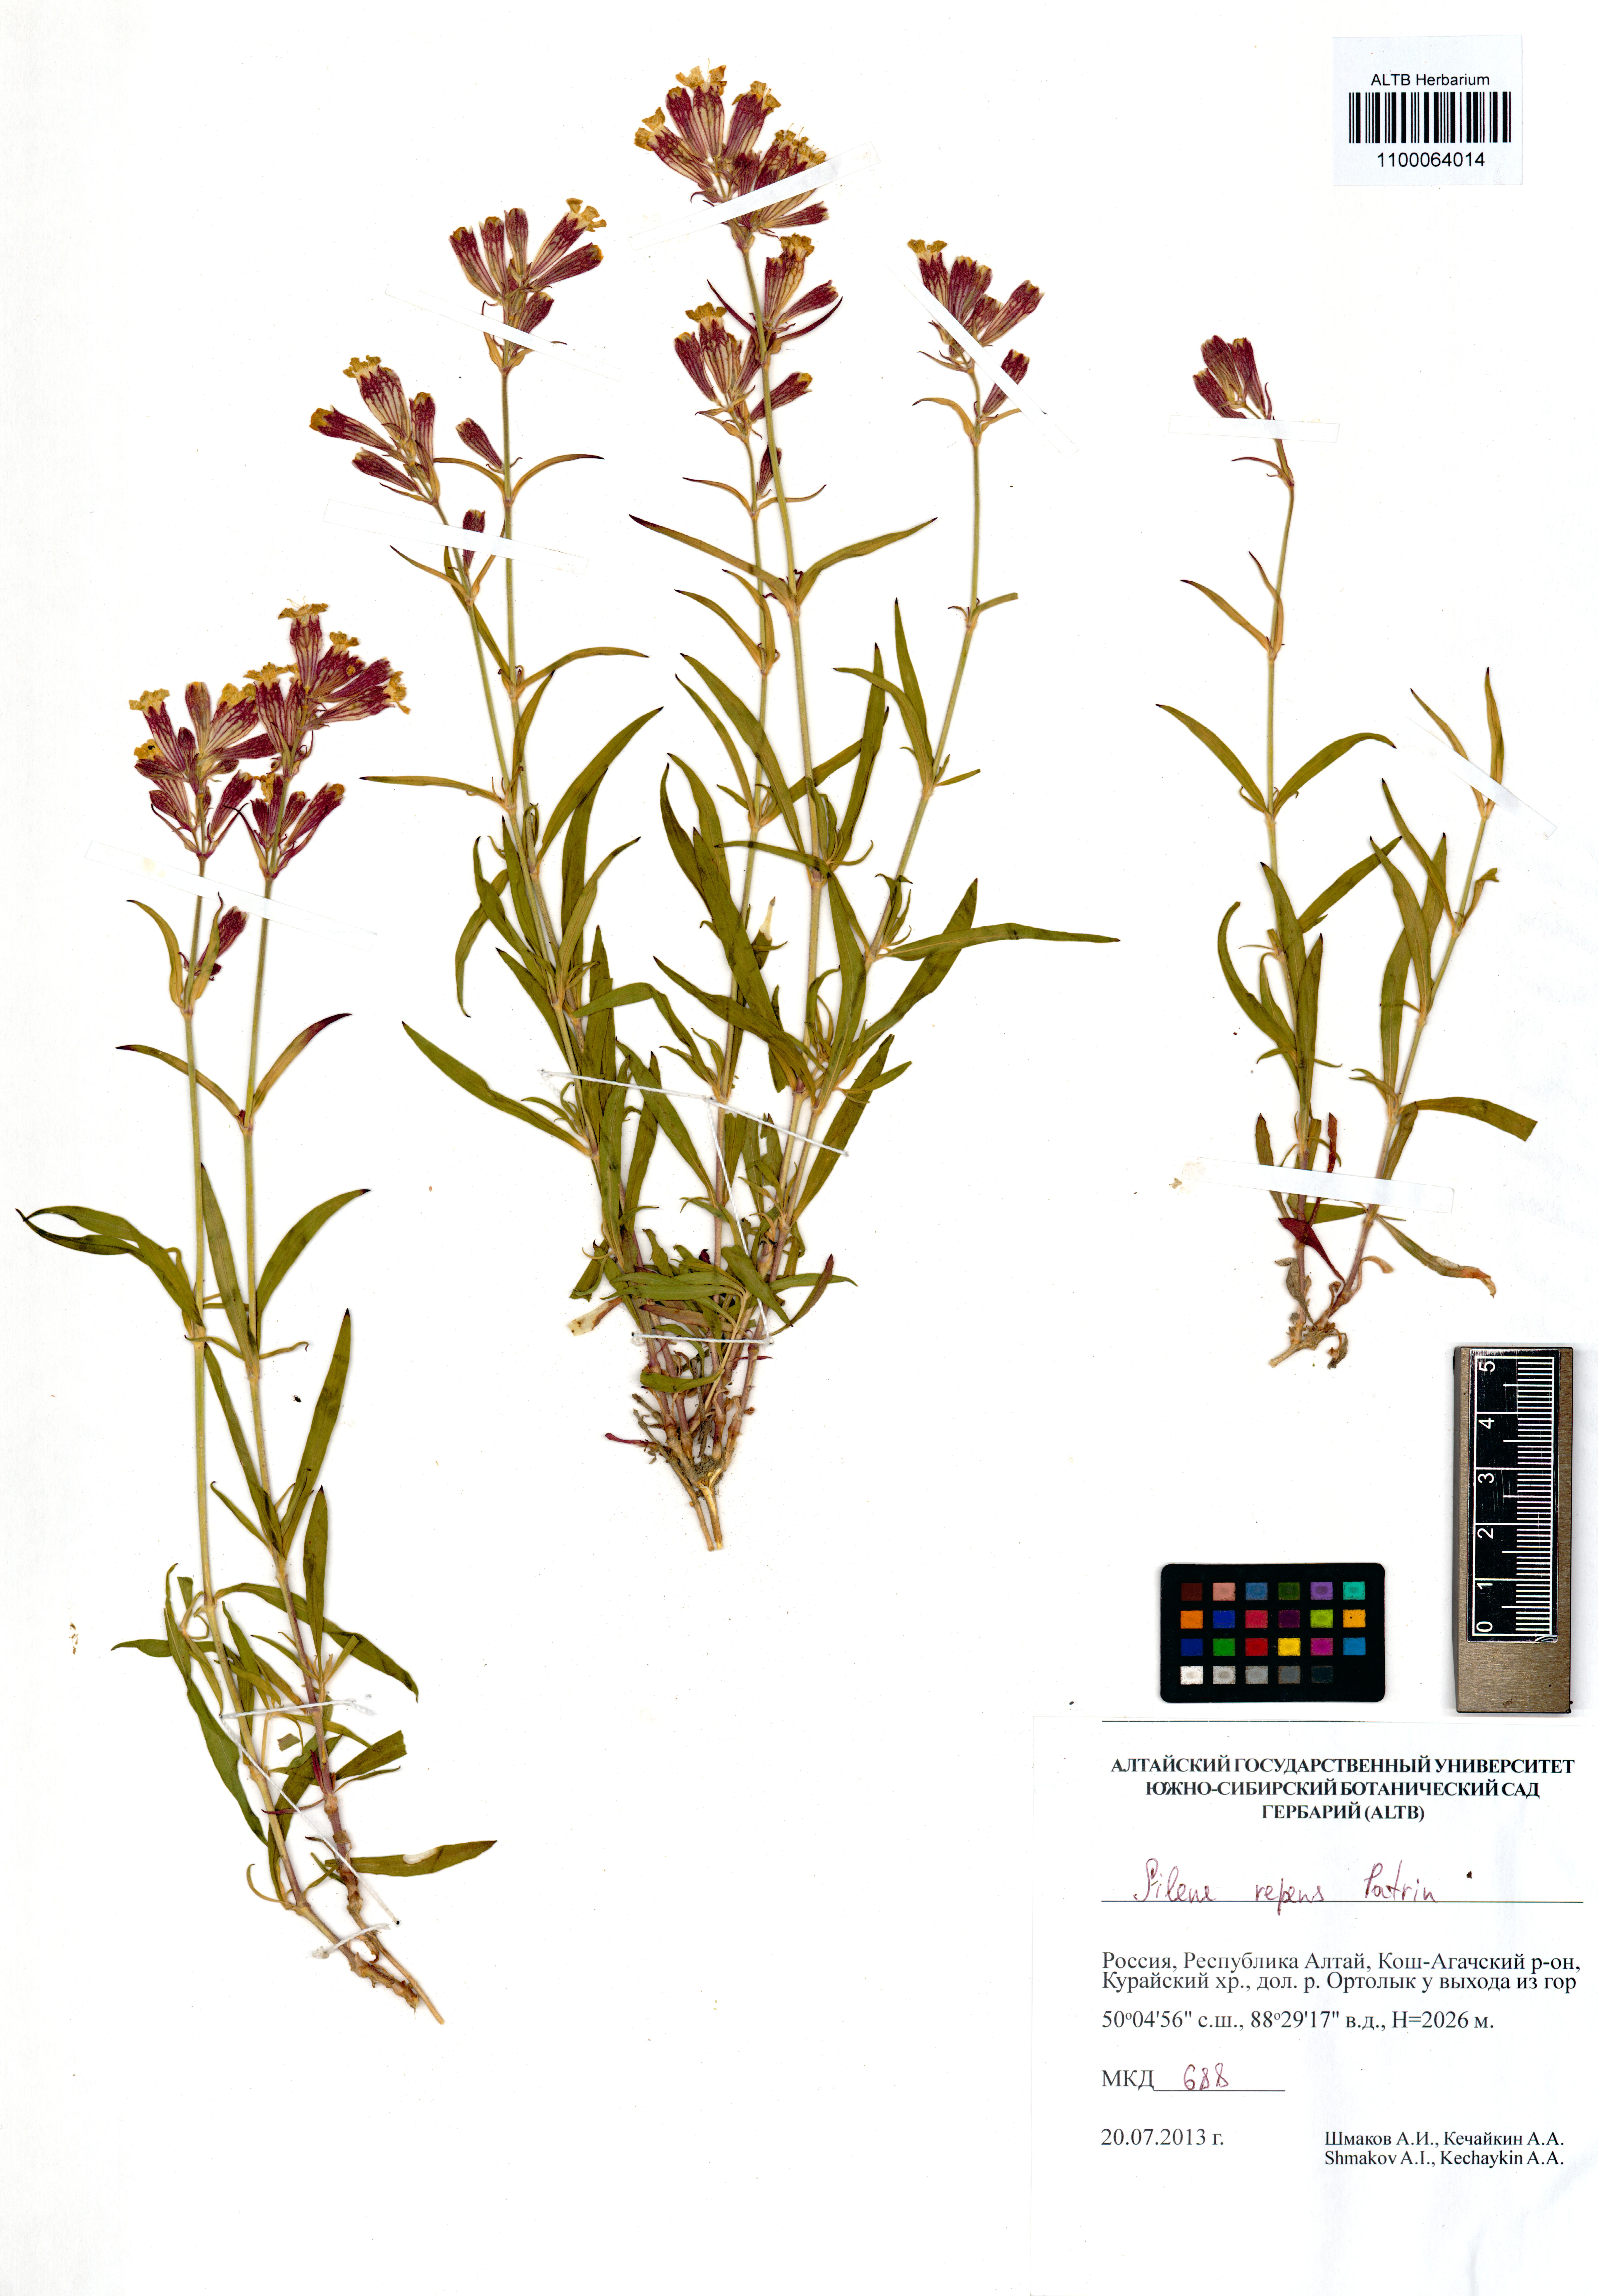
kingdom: Plantae
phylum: Tracheophyta
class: Magnoliopsida
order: Caryophyllales
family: Caryophyllaceae
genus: Silene
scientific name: Silene repens
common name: Pink campion
